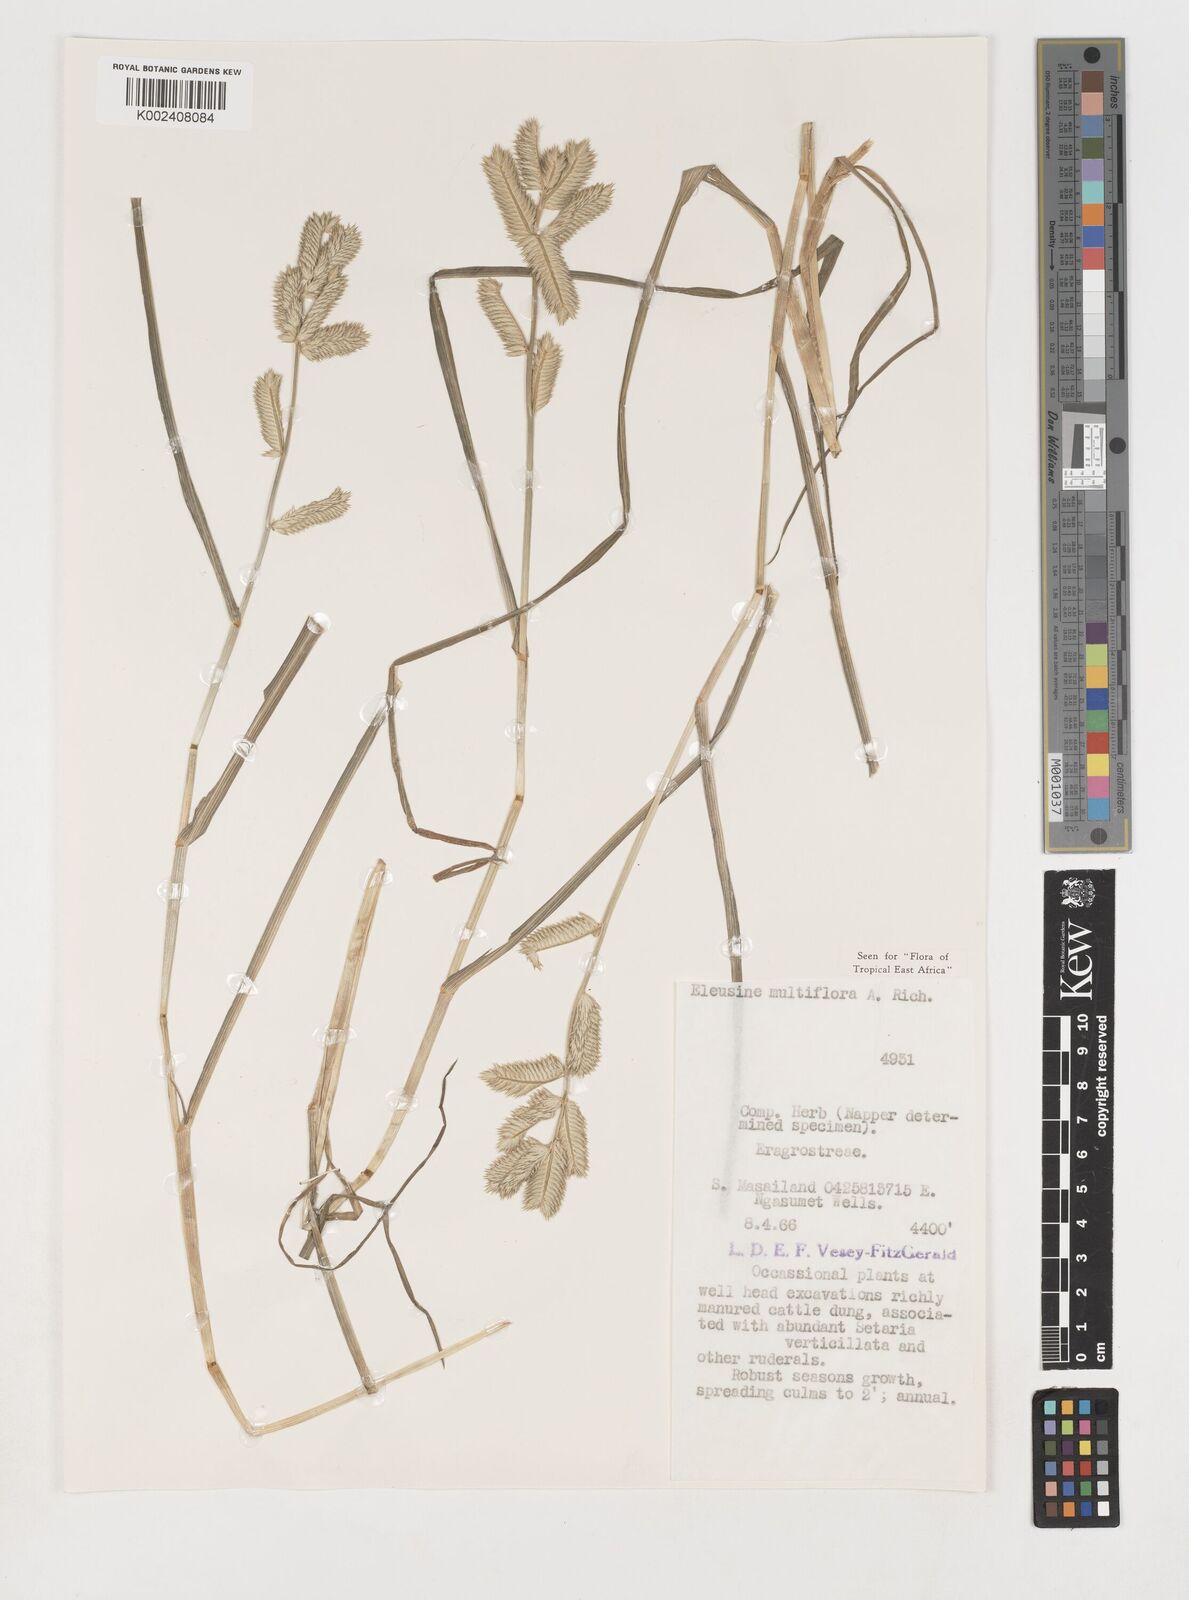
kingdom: Plantae
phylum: Tracheophyta
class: Liliopsida
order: Poales
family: Poaceae
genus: Eleusine
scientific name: Eleusine multiflora
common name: Fat-spiked yard-grass
